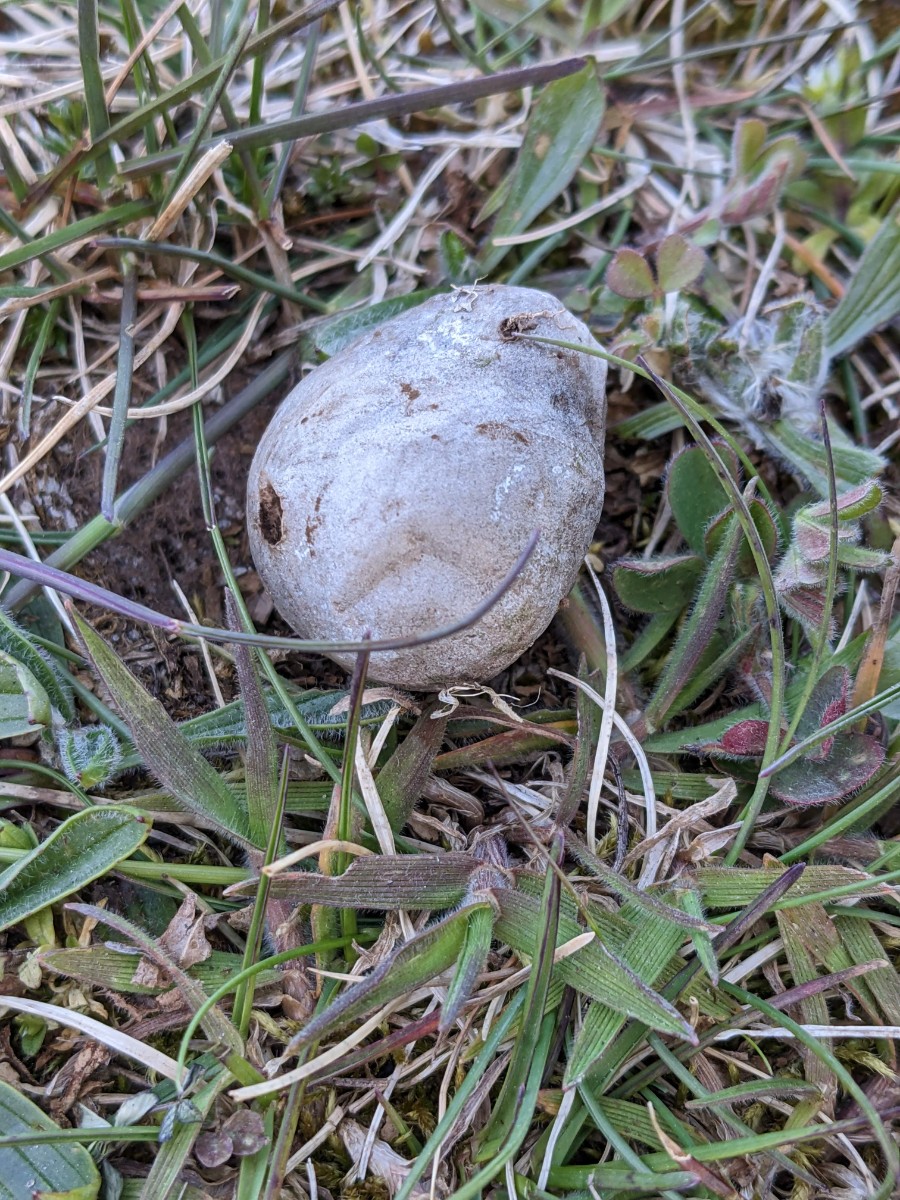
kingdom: Fungi
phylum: Basidiomycota
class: Agaricomycetes
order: Agaricales
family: Lycoperdaceae
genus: Bovista
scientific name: Bovista plumbea
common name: blygrå bovist
